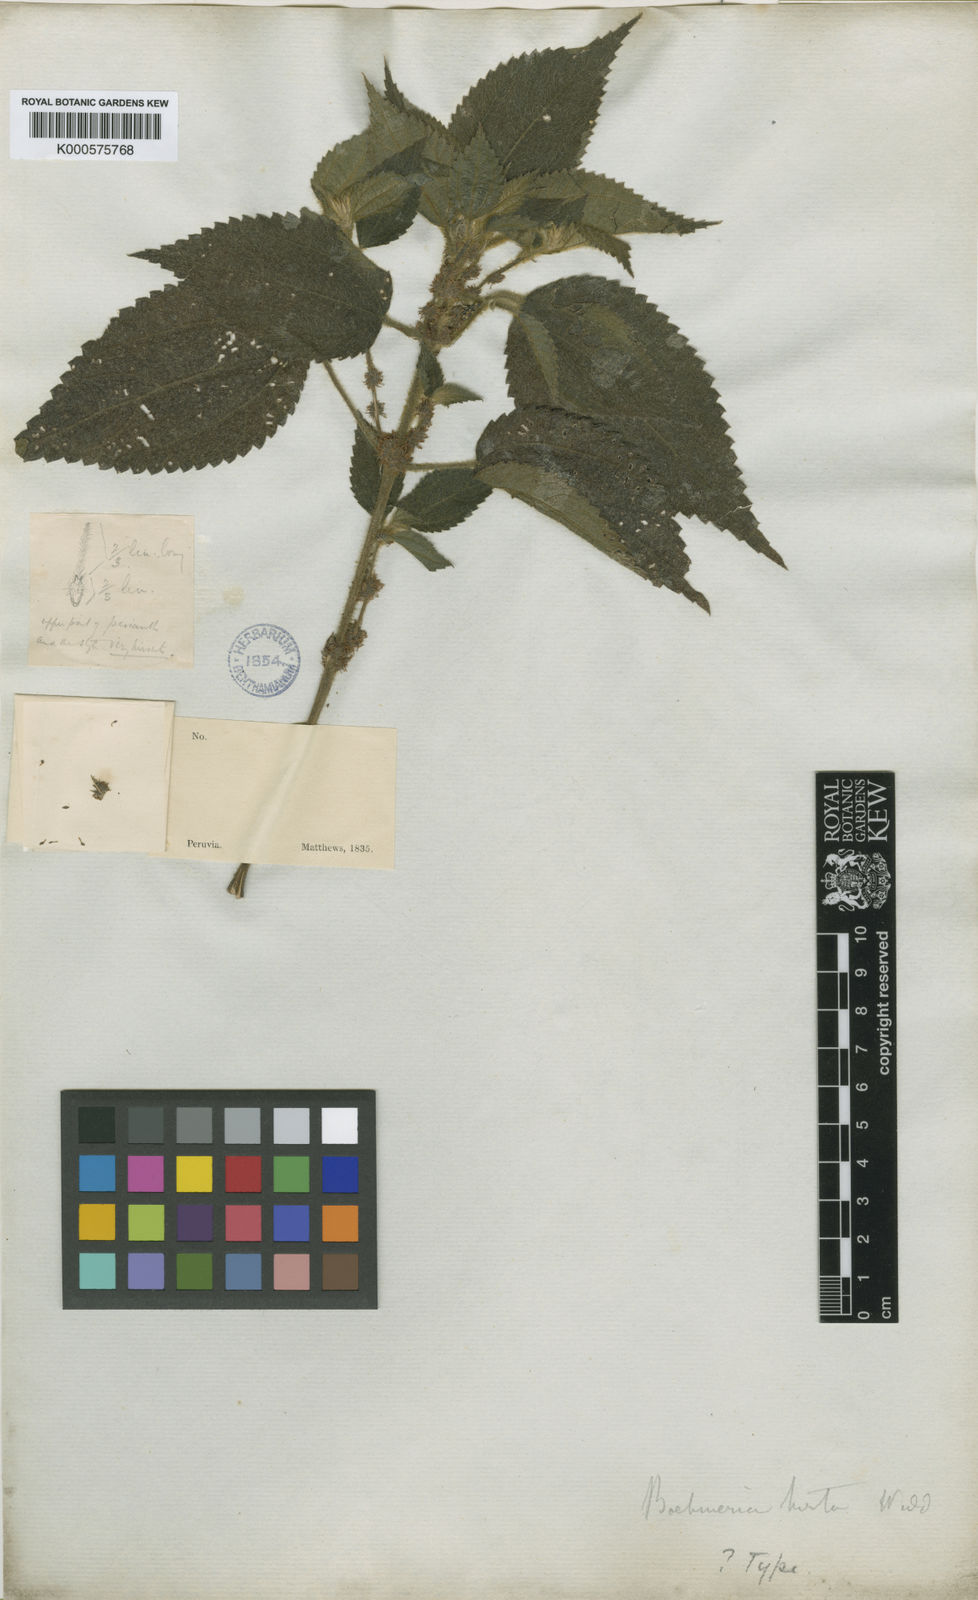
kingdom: Plantae
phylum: Tracheophyta
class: Magnoliopsida
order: Rosales
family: Urticaceae
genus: Boehmeria
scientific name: Boehmeria brevirostris
